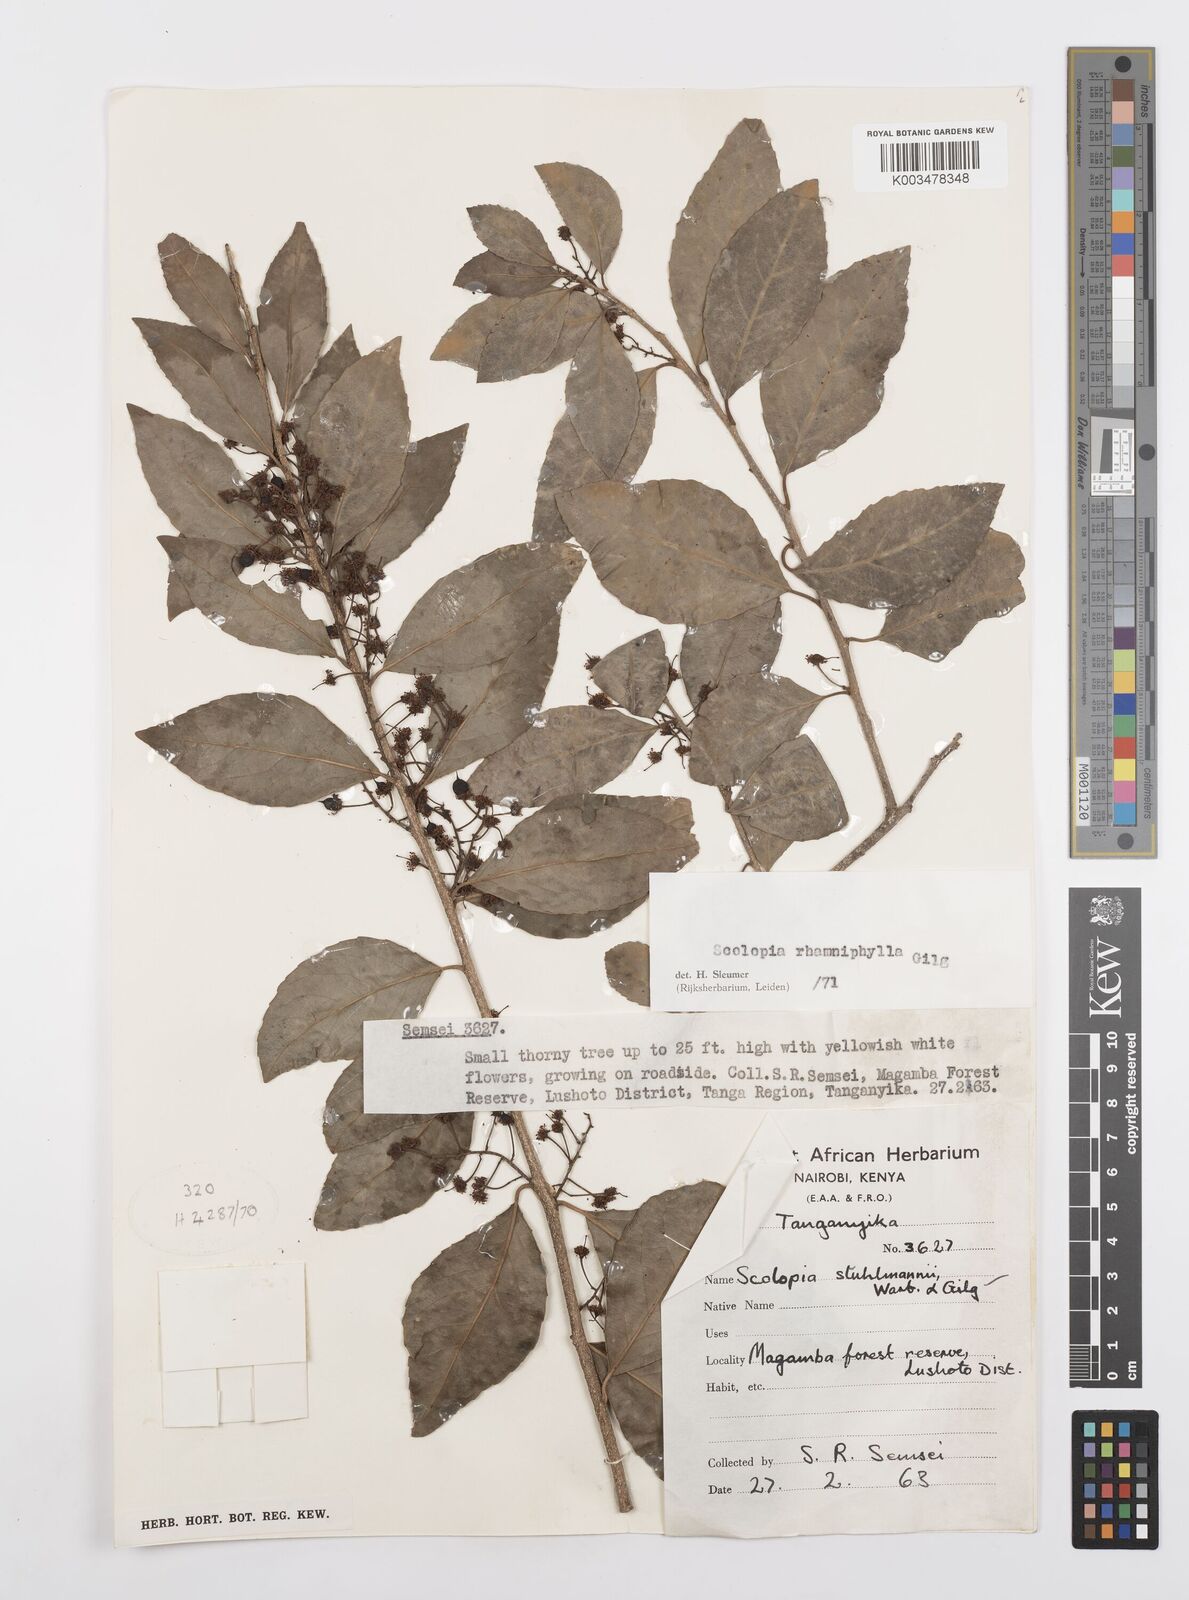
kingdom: Plantae
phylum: Tracheophyta
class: Magnoliopsida
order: Malpighiales
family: Salicaceae
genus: Scolopia
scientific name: Scolopia rhamniphylla
